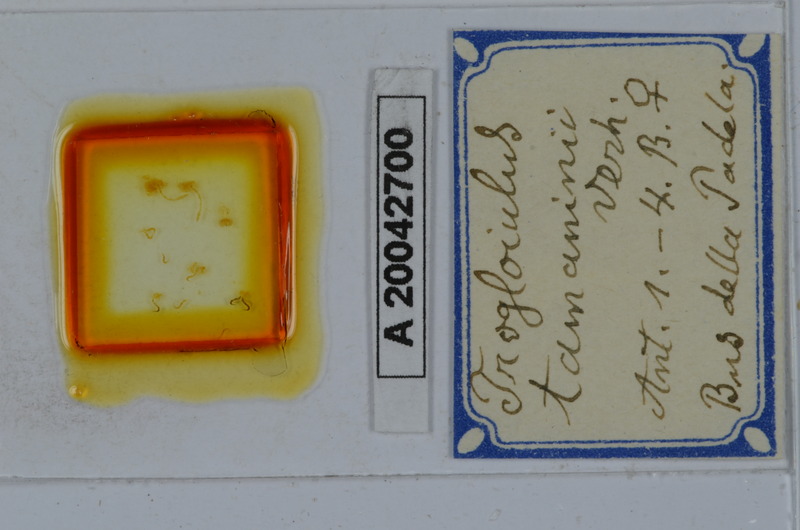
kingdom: Animalia
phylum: Arthropoda
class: Diplopoda
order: Julida
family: Julidae
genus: Trogloiulus
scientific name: Trogloiulus boldorii
